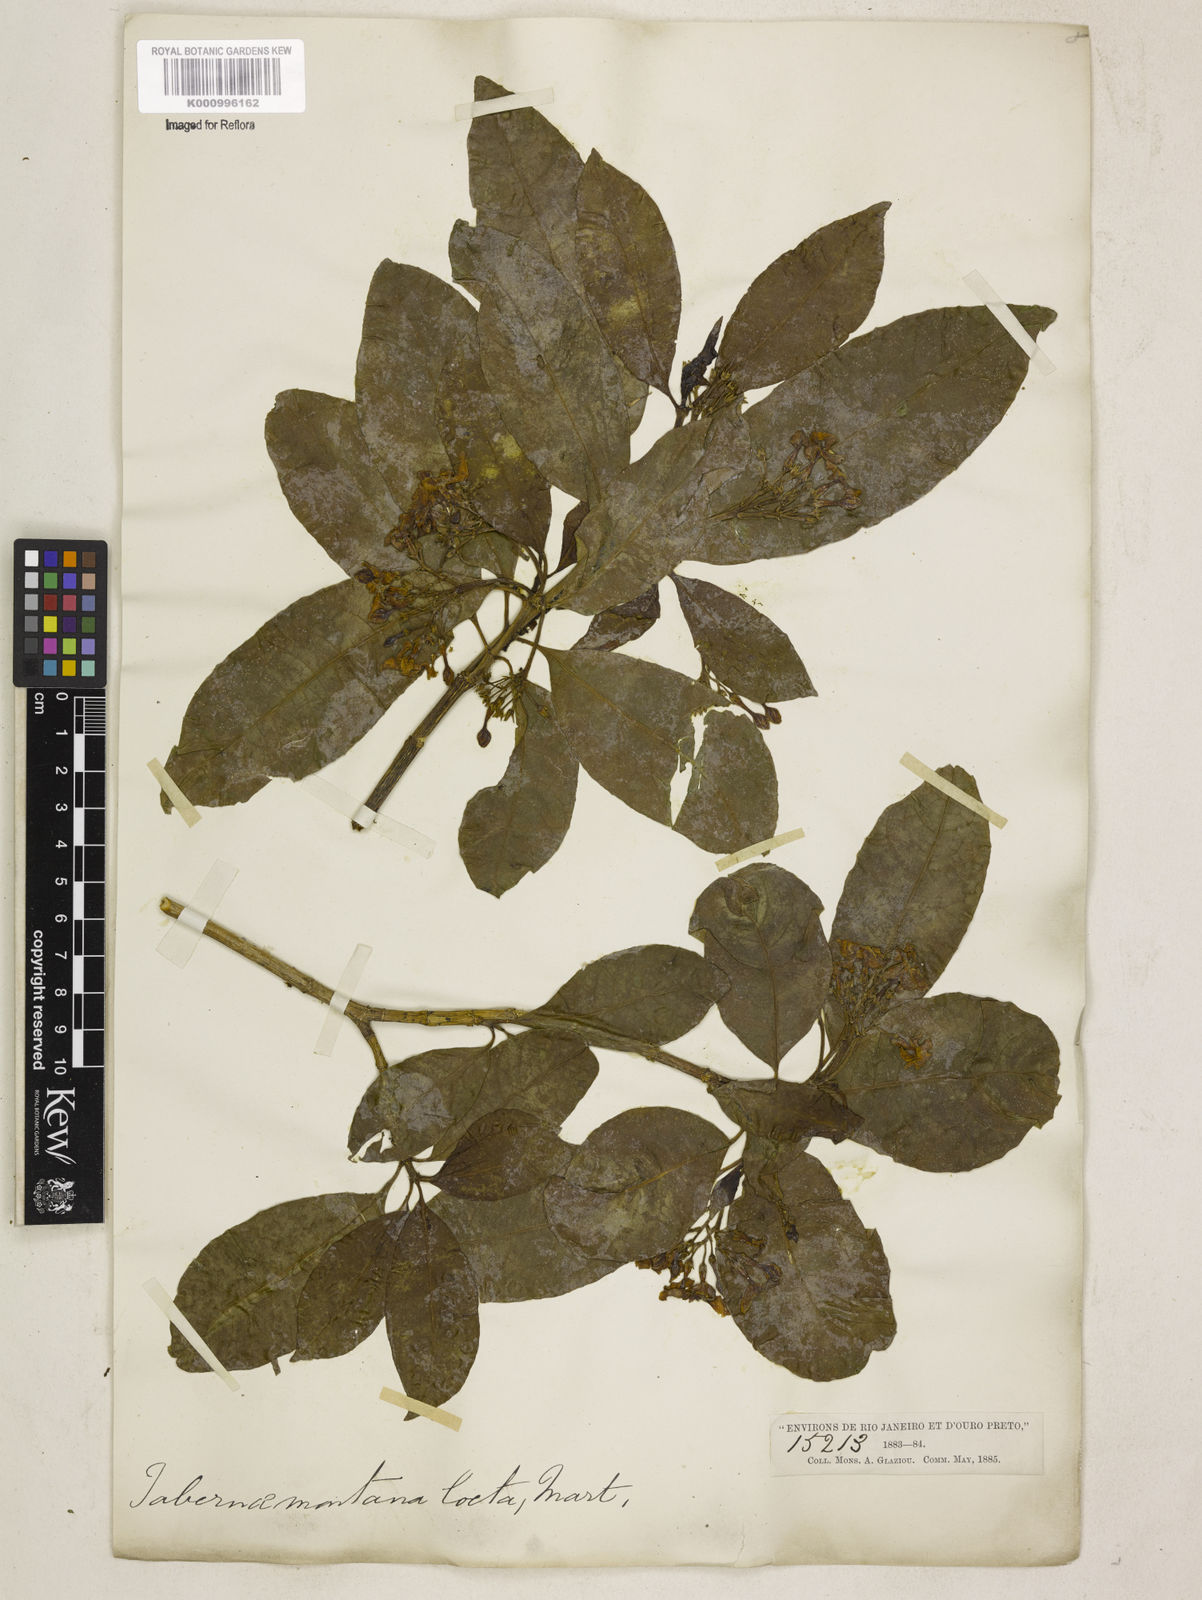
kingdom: Plantae
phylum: Tracheophyta
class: Magnoliopsida
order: Gentianales
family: Apocynaceae
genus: Tabernaemontana
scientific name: Tabernaemontana laeta
